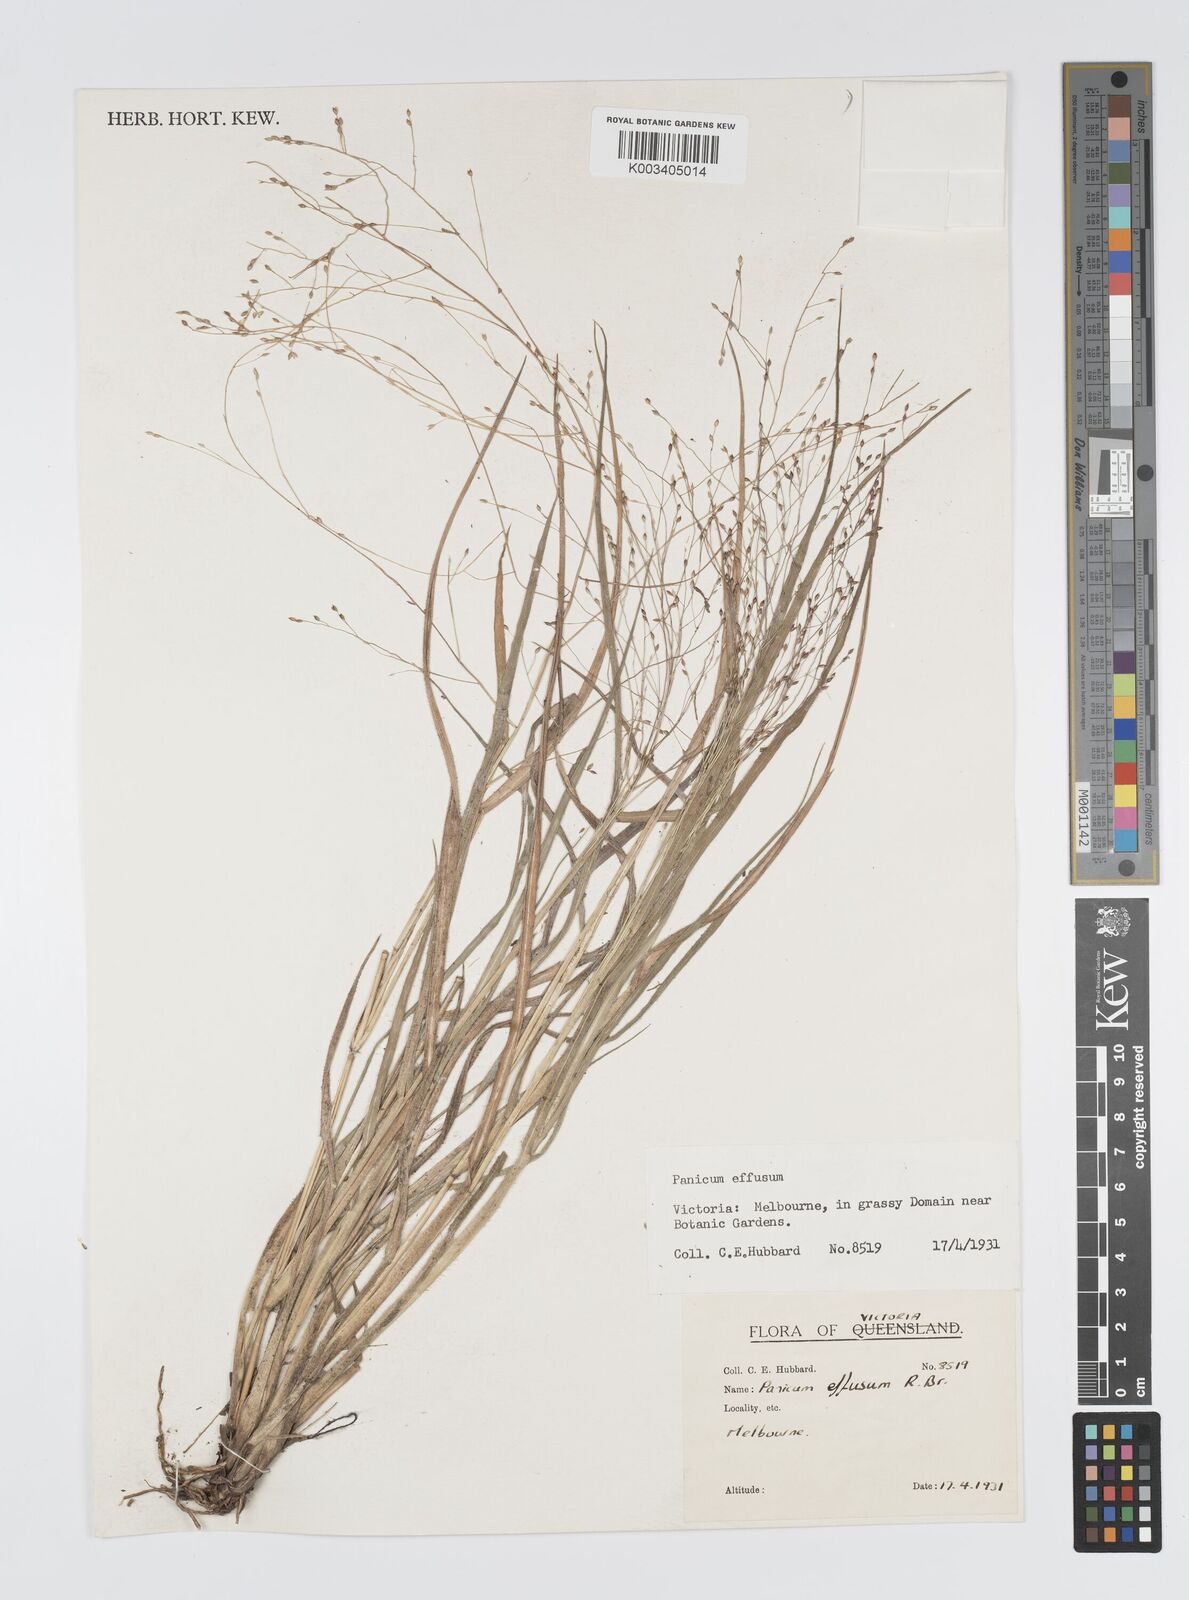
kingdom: Plantae
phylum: Tracheophyta
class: Liliopsida
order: Poales
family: Poaceae
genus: Panicum
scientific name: Panicum effusum
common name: Hairy panic grass
